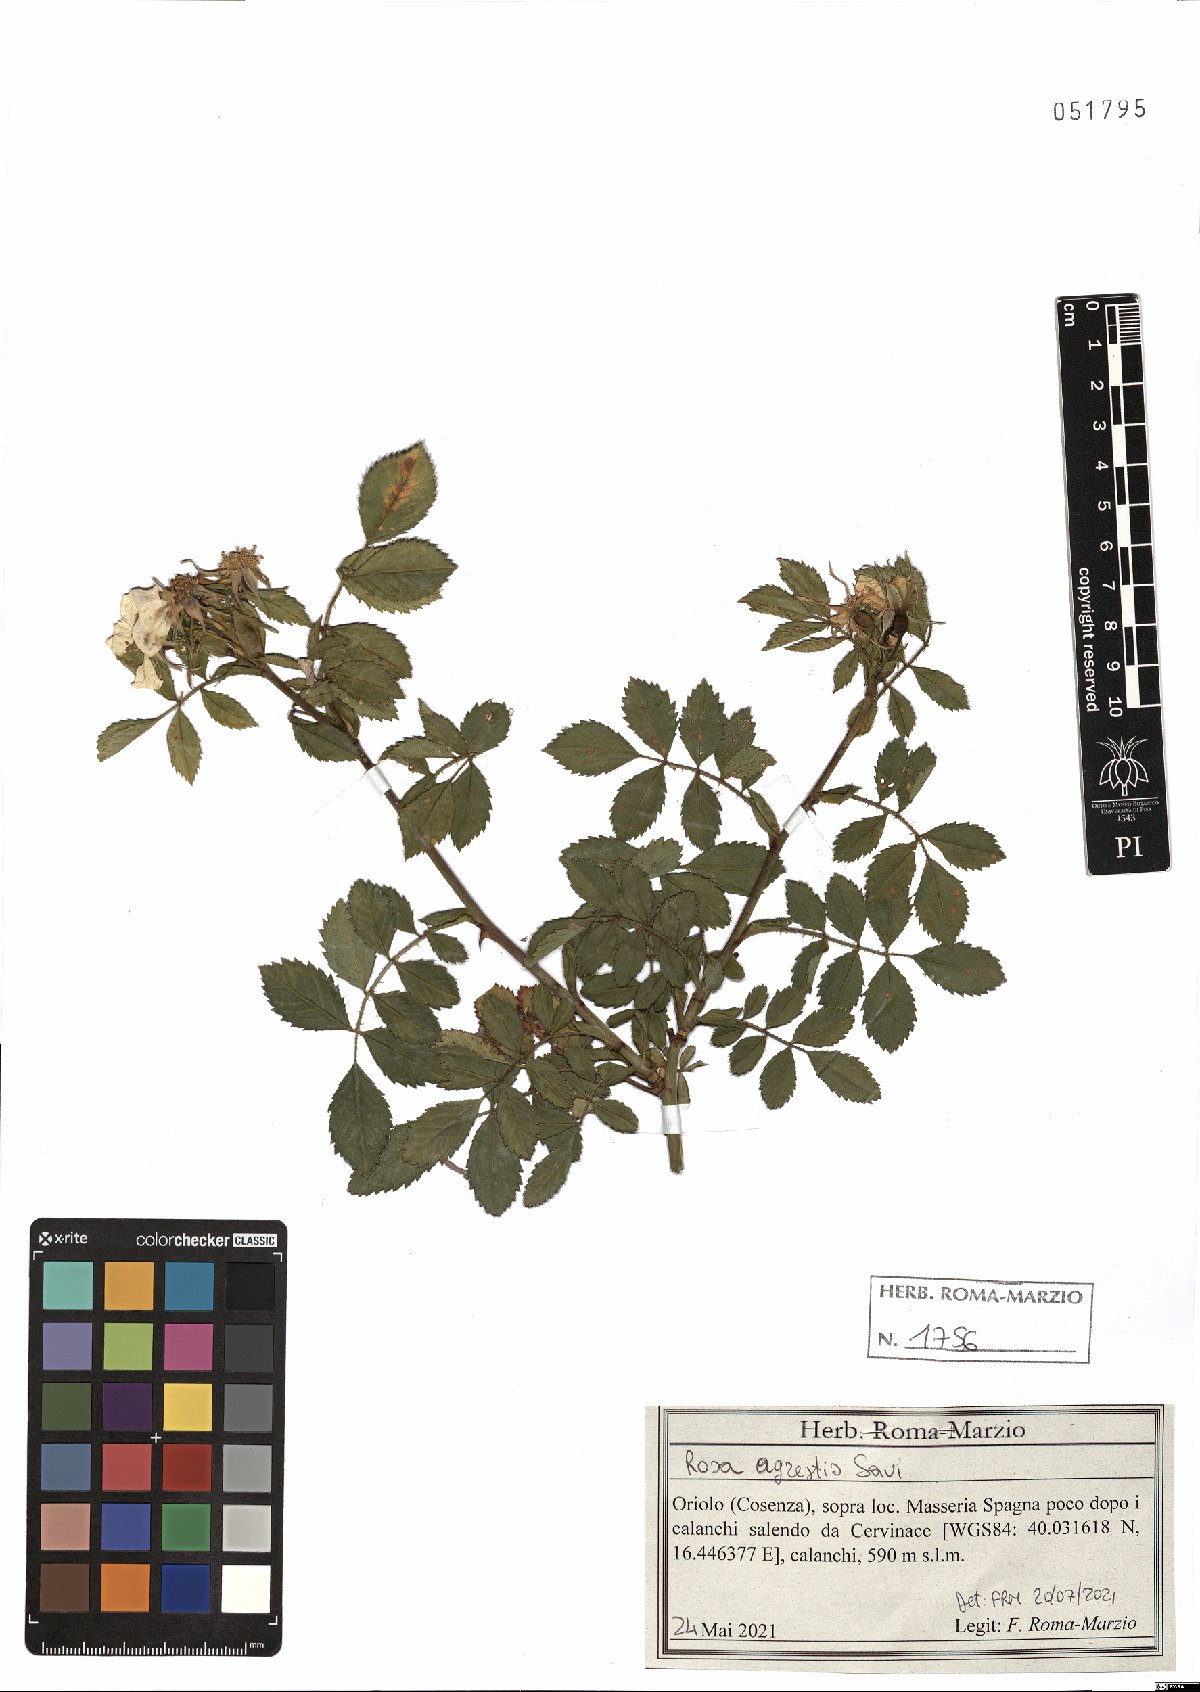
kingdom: Plantae
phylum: Tracheophyta
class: Magnoliopsida
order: Rosales
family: Rosaceae
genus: Rosa
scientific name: Rosa agrestis
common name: Fieldbriar
